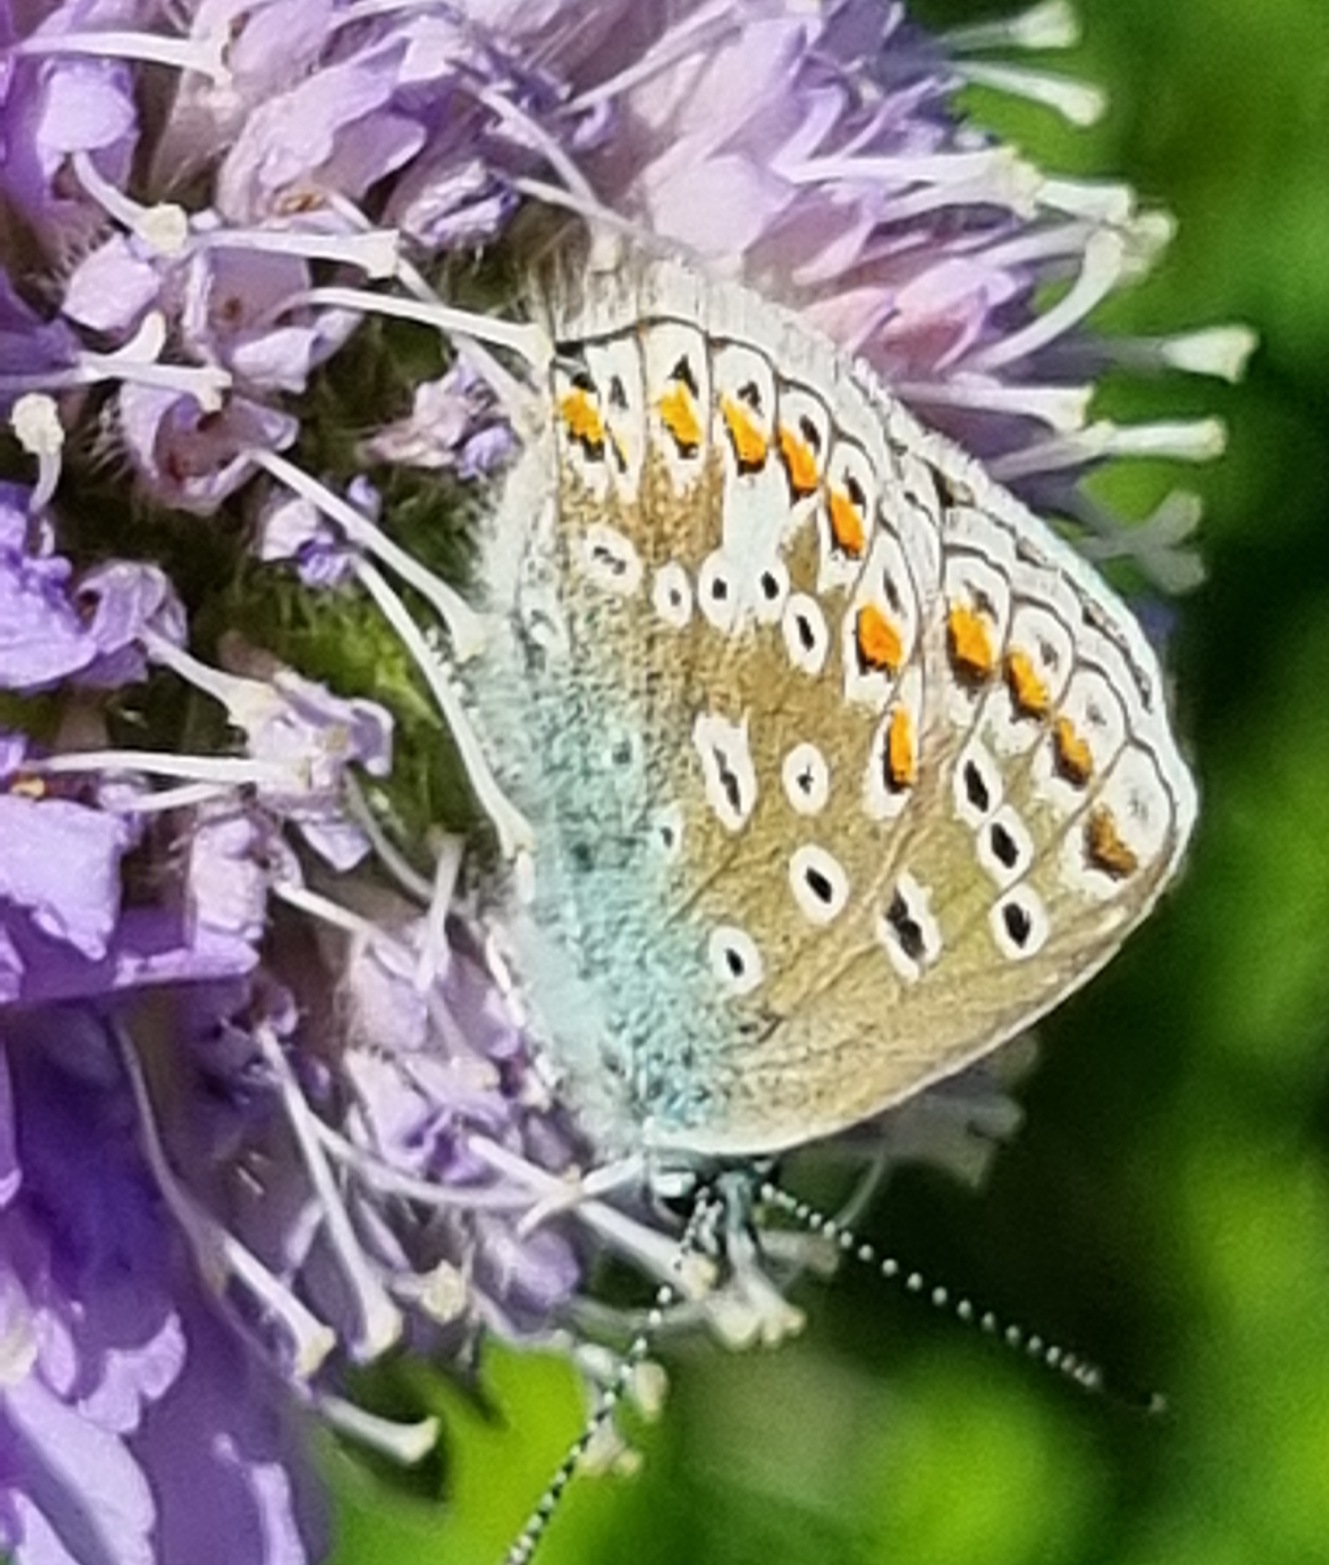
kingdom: Animalia
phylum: Arthropoda
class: Insecta
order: Lepidoptera
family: Lycaenidae
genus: Polyommatus
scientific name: Polyommatus icarus
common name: Almindelig blåfugl
